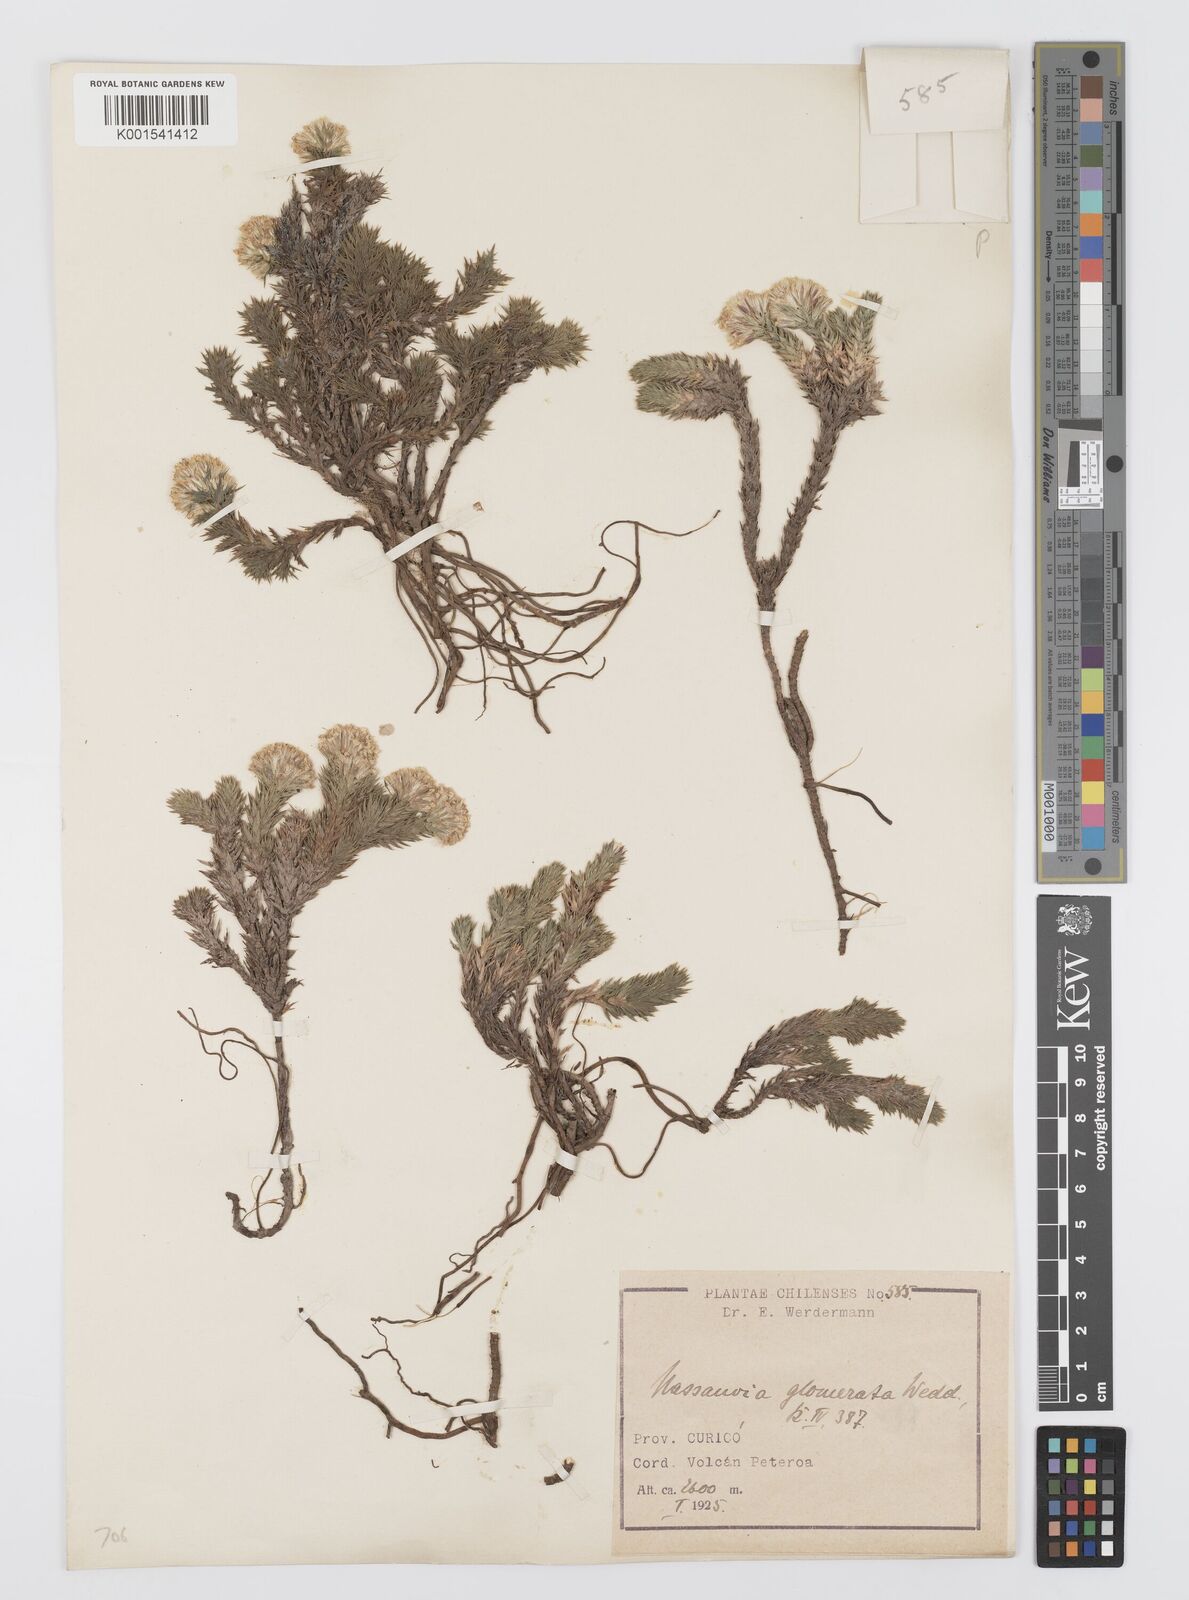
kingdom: Plantae
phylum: Tracheophyta
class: Magnoliopsida
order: Asterales
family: Asteraceae
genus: Nassauvia
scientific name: Nassauvia glomerata
